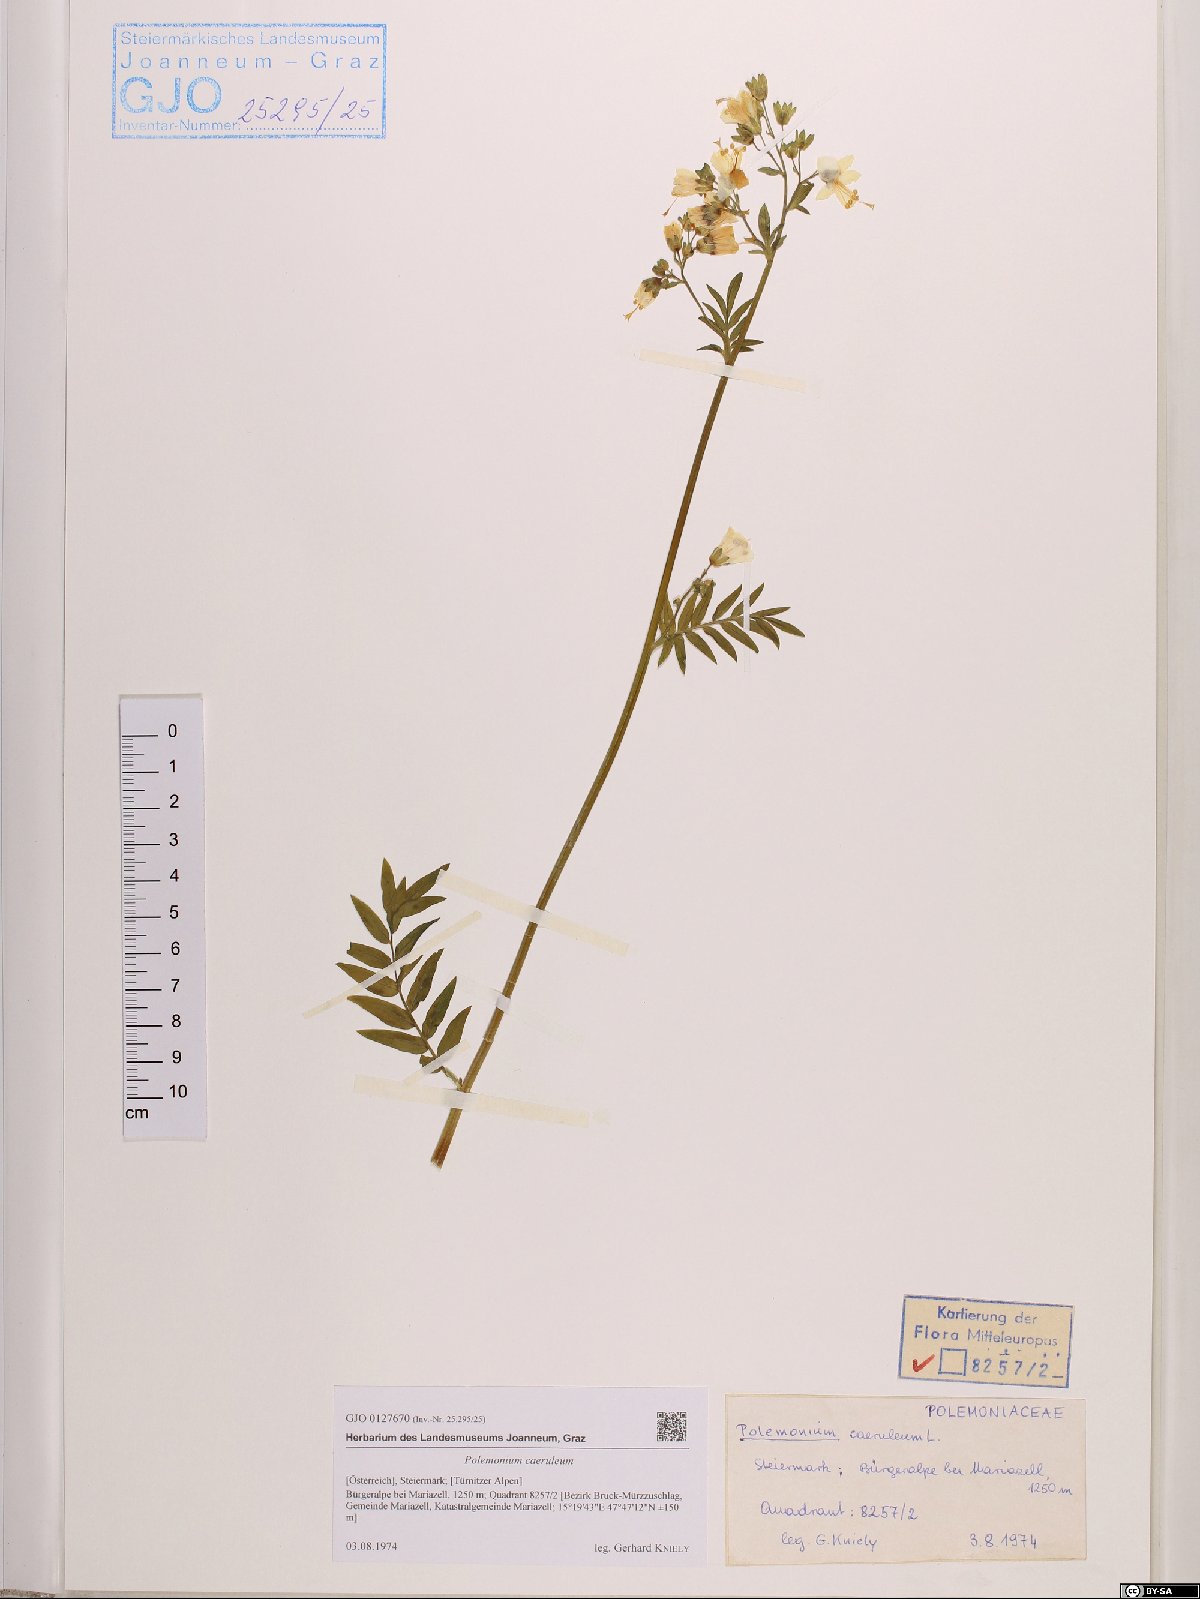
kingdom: Plantae
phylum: Tracheophyta
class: Magnoliopsida
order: Ericales
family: Polemoniaceae
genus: Polemonium
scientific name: Polemonium caeruleum
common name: Jacob's-ladder
